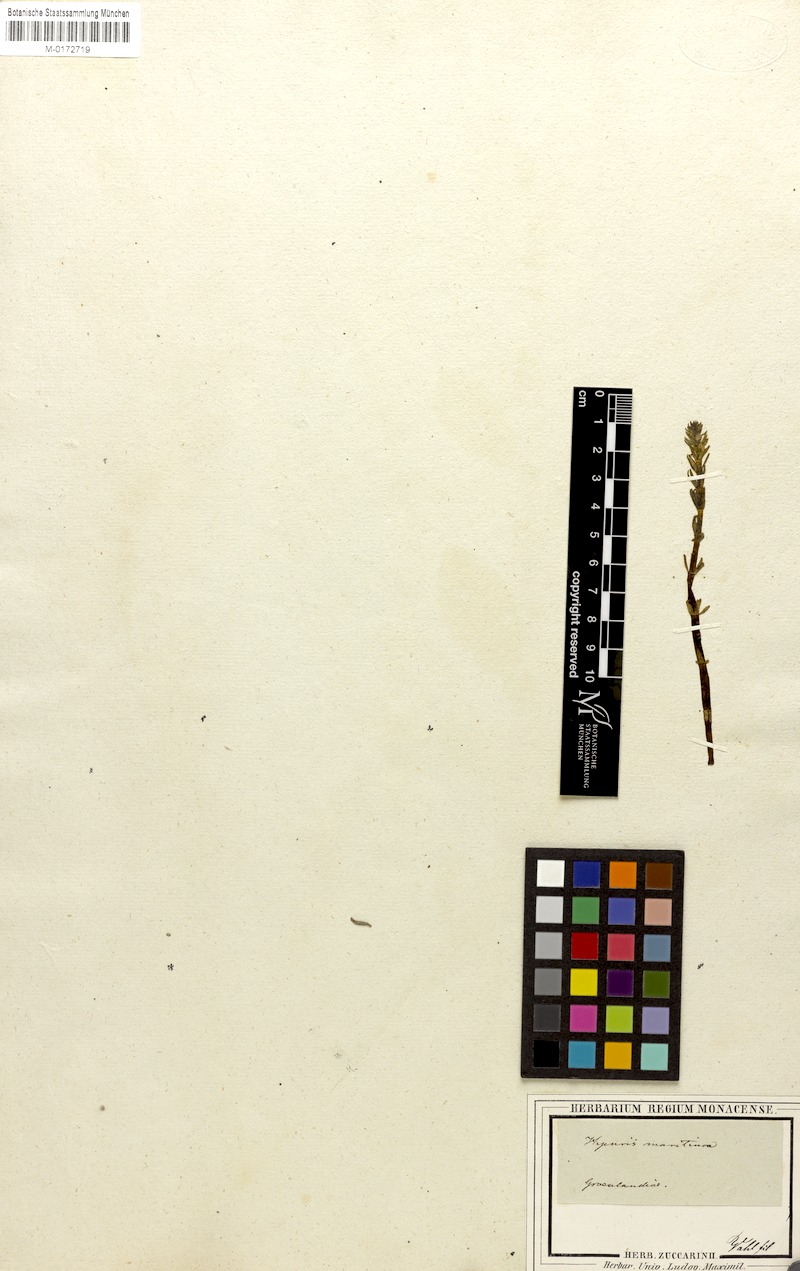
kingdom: Plantae
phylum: Tracheophyta
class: Magnoliopsida
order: Lamiales
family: Plantaginaceae
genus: Hippuris
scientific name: Hippuris vulgaris
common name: Mare's-tail
